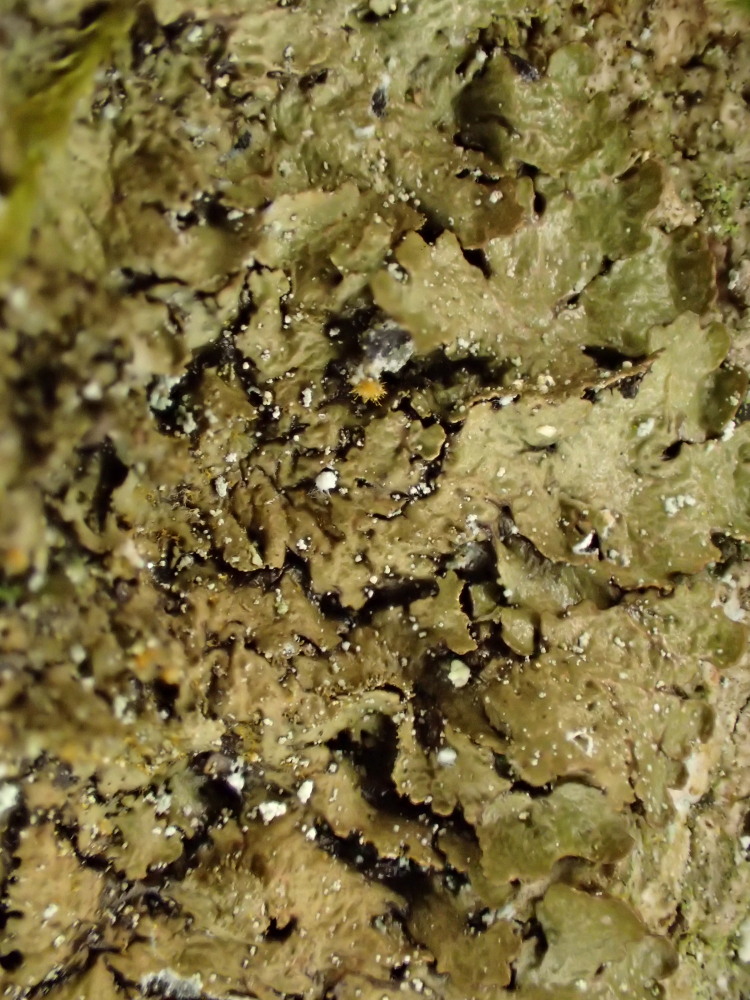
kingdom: Fungi
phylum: Ascomycota
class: Lecanoromycetes
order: Lecanorales
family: Parmeliaceae
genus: Melanelixia
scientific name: Melanelixia subaurifera
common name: guldpudret skållav
